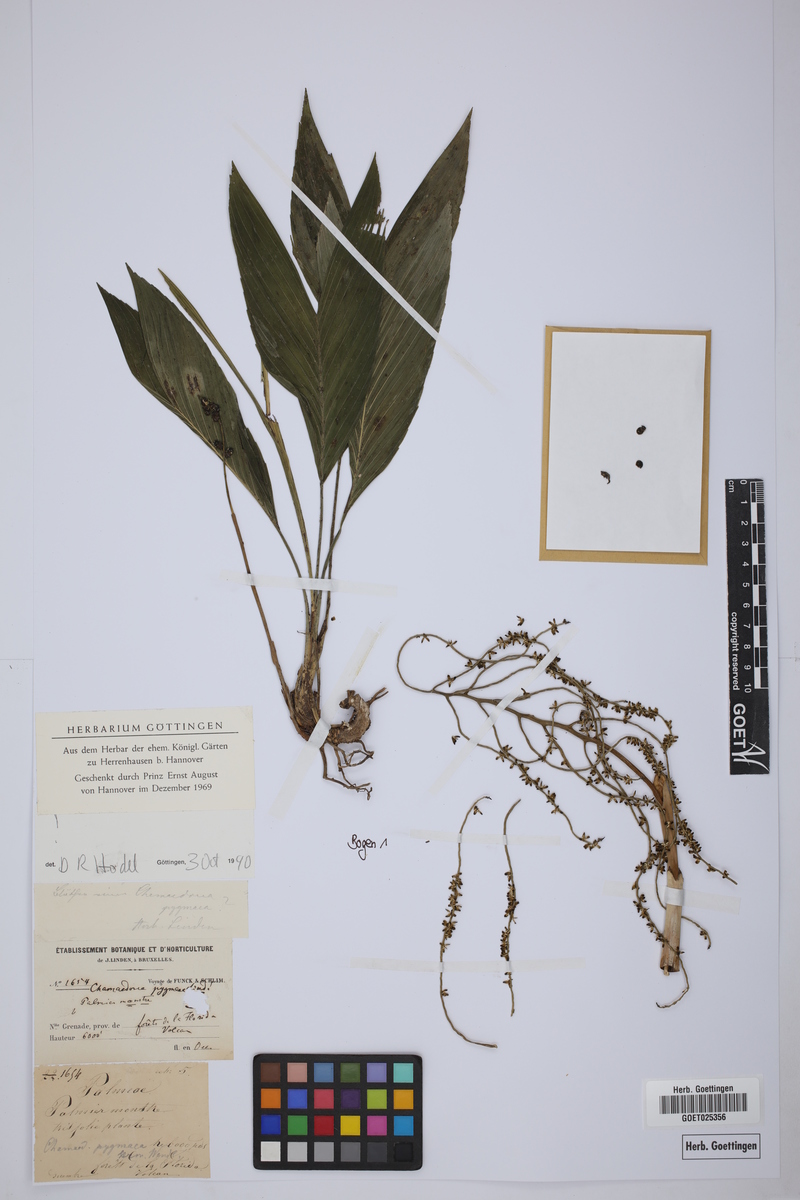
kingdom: Plantae
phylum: Tracheophyta
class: Liliopsida
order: Arecales
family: Arecaceae
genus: Chamaedorea
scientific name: Chamaedorea pygmaea
